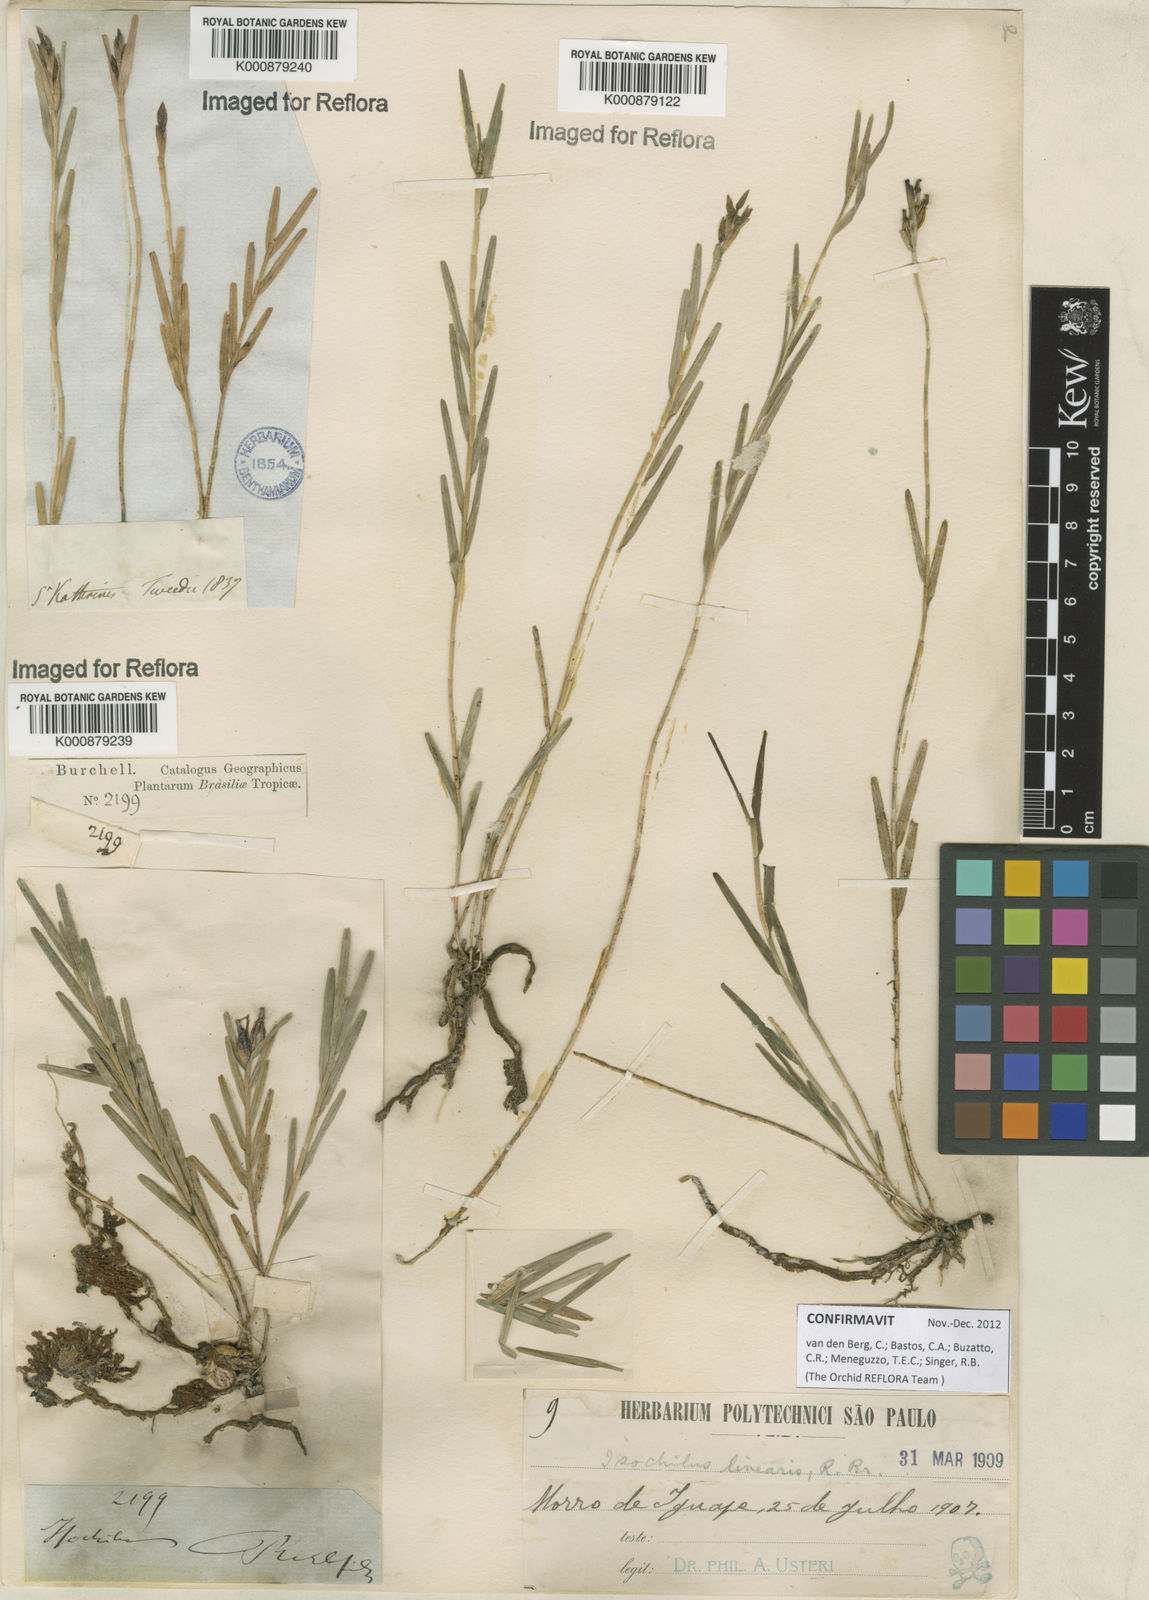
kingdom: Plantae
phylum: Tracheophyta
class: Liliopsida
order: Asparagales
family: Orchidaceae
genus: Isochilus
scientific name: Isochilus linearis
